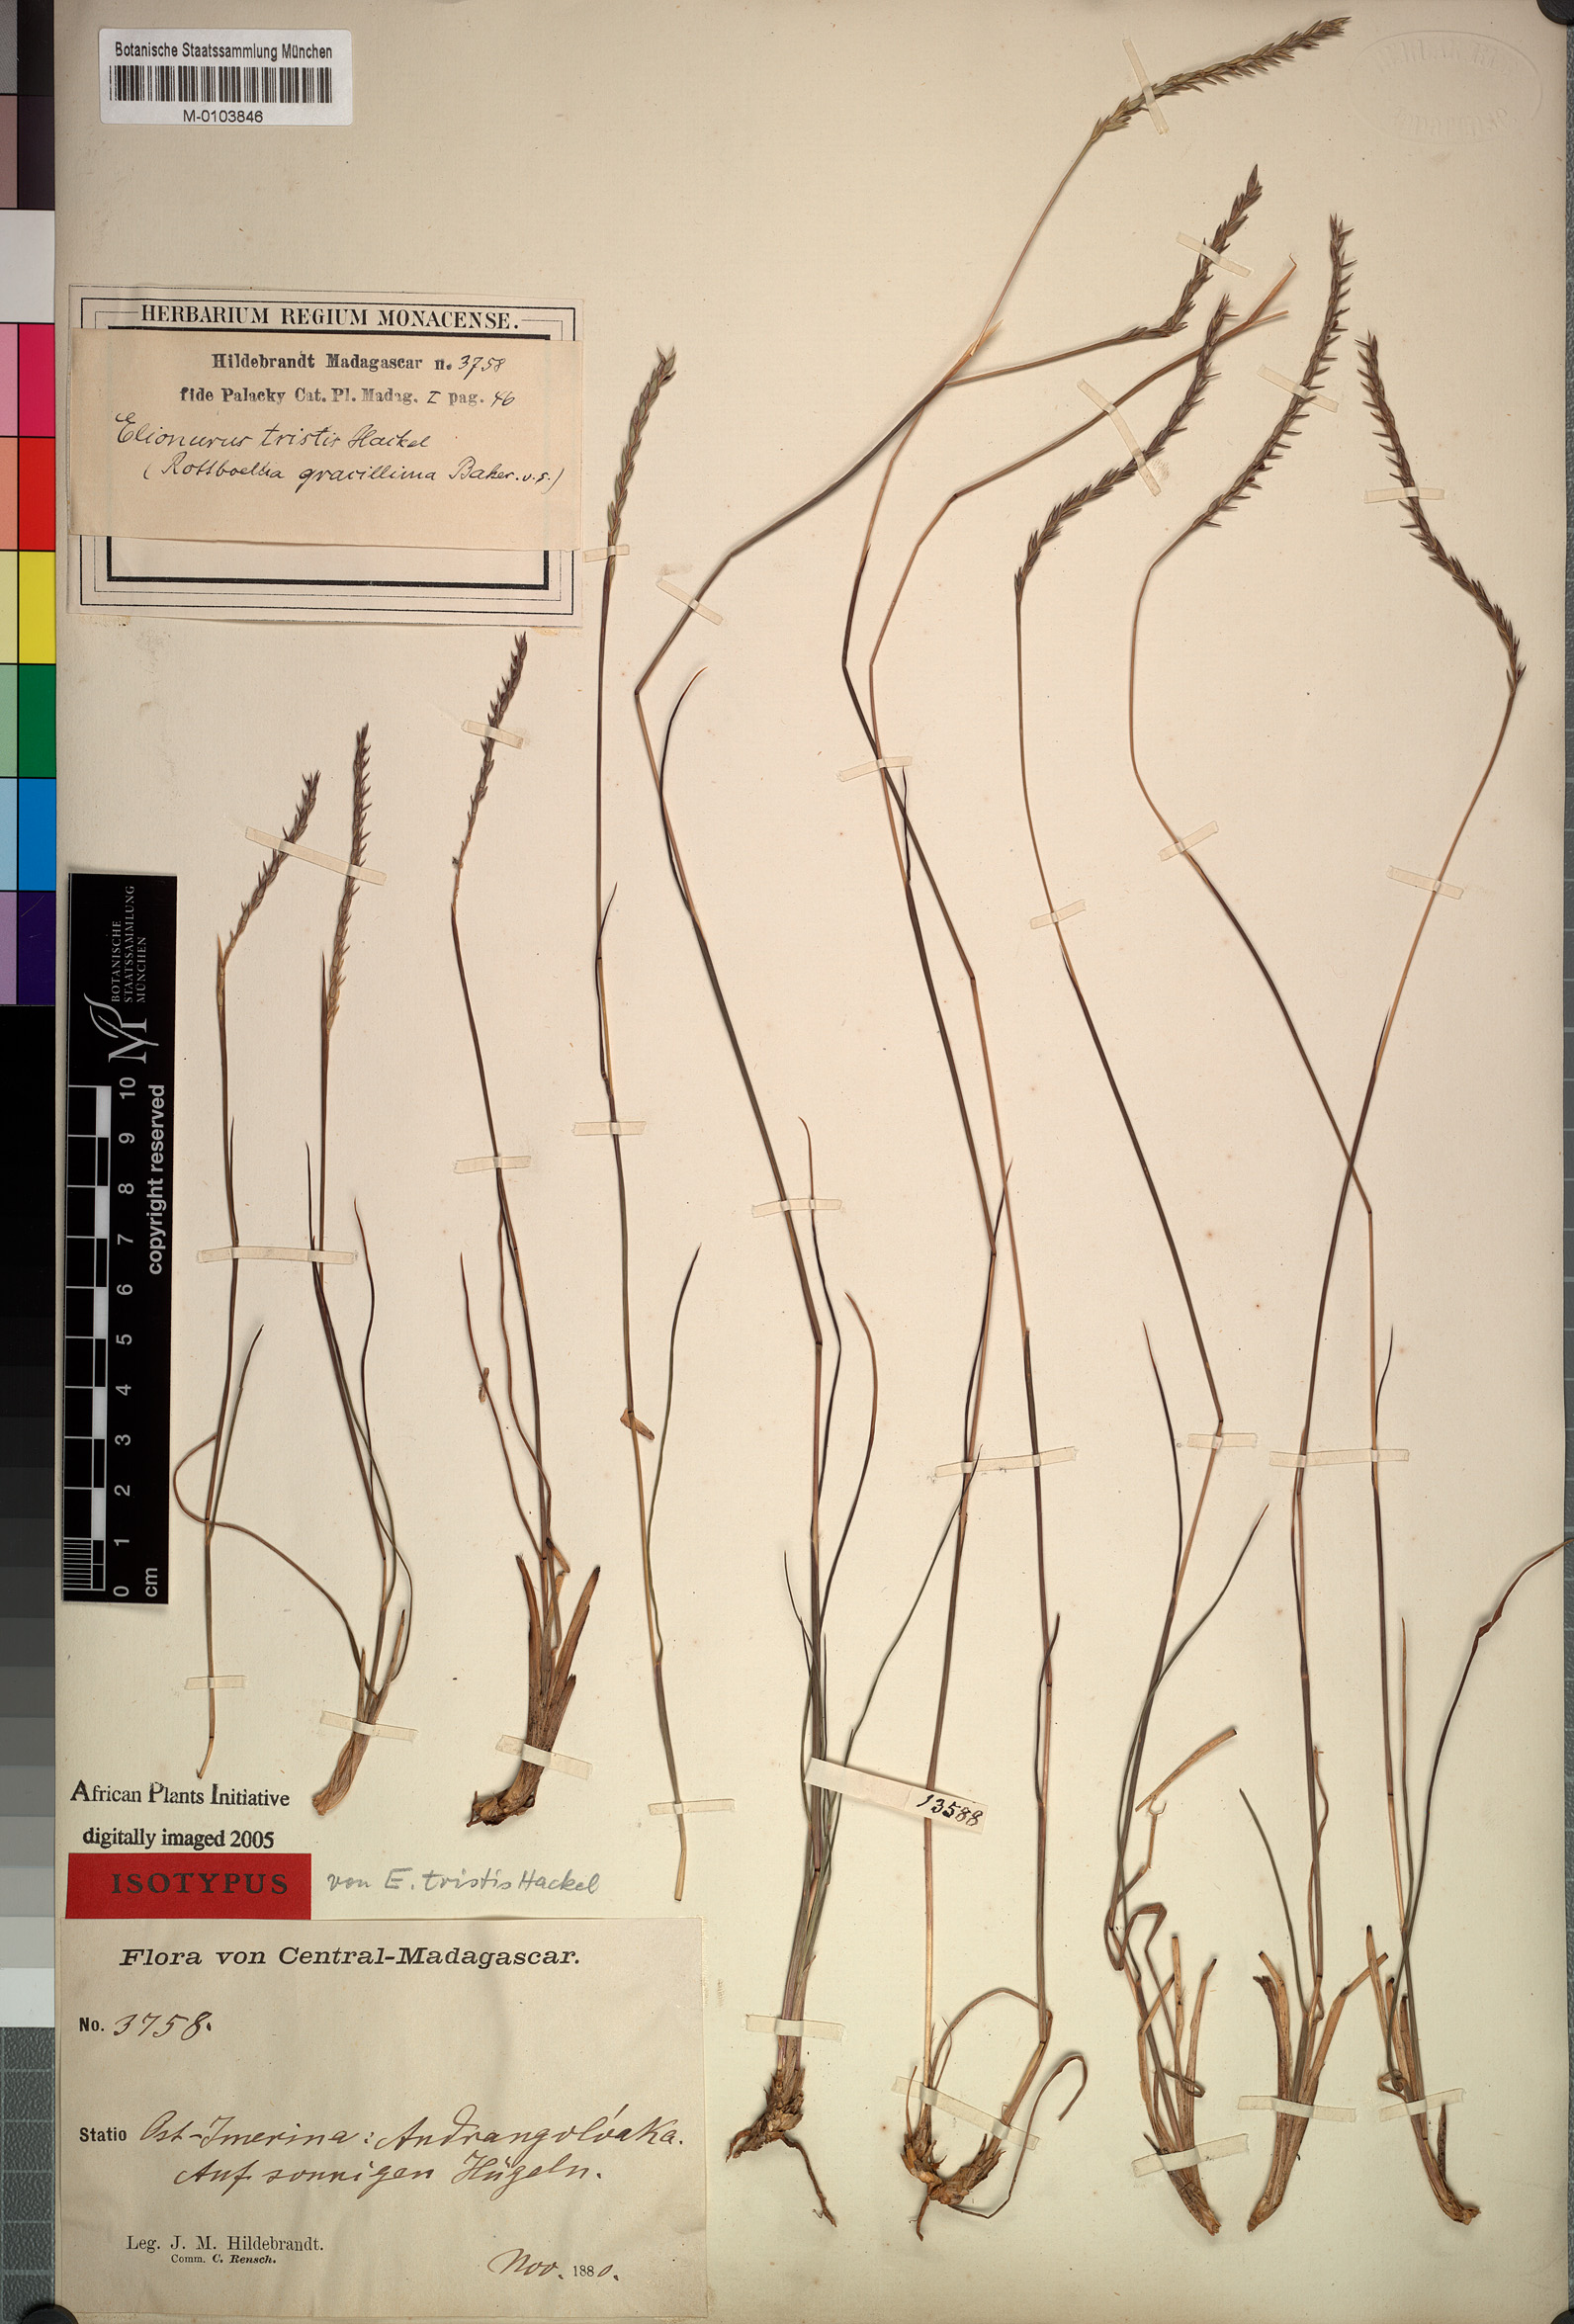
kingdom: Plantae
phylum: Tracheophyta
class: Liliopsida
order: Poales
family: Poaceae
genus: Elionurus
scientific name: Elionurus tristis
